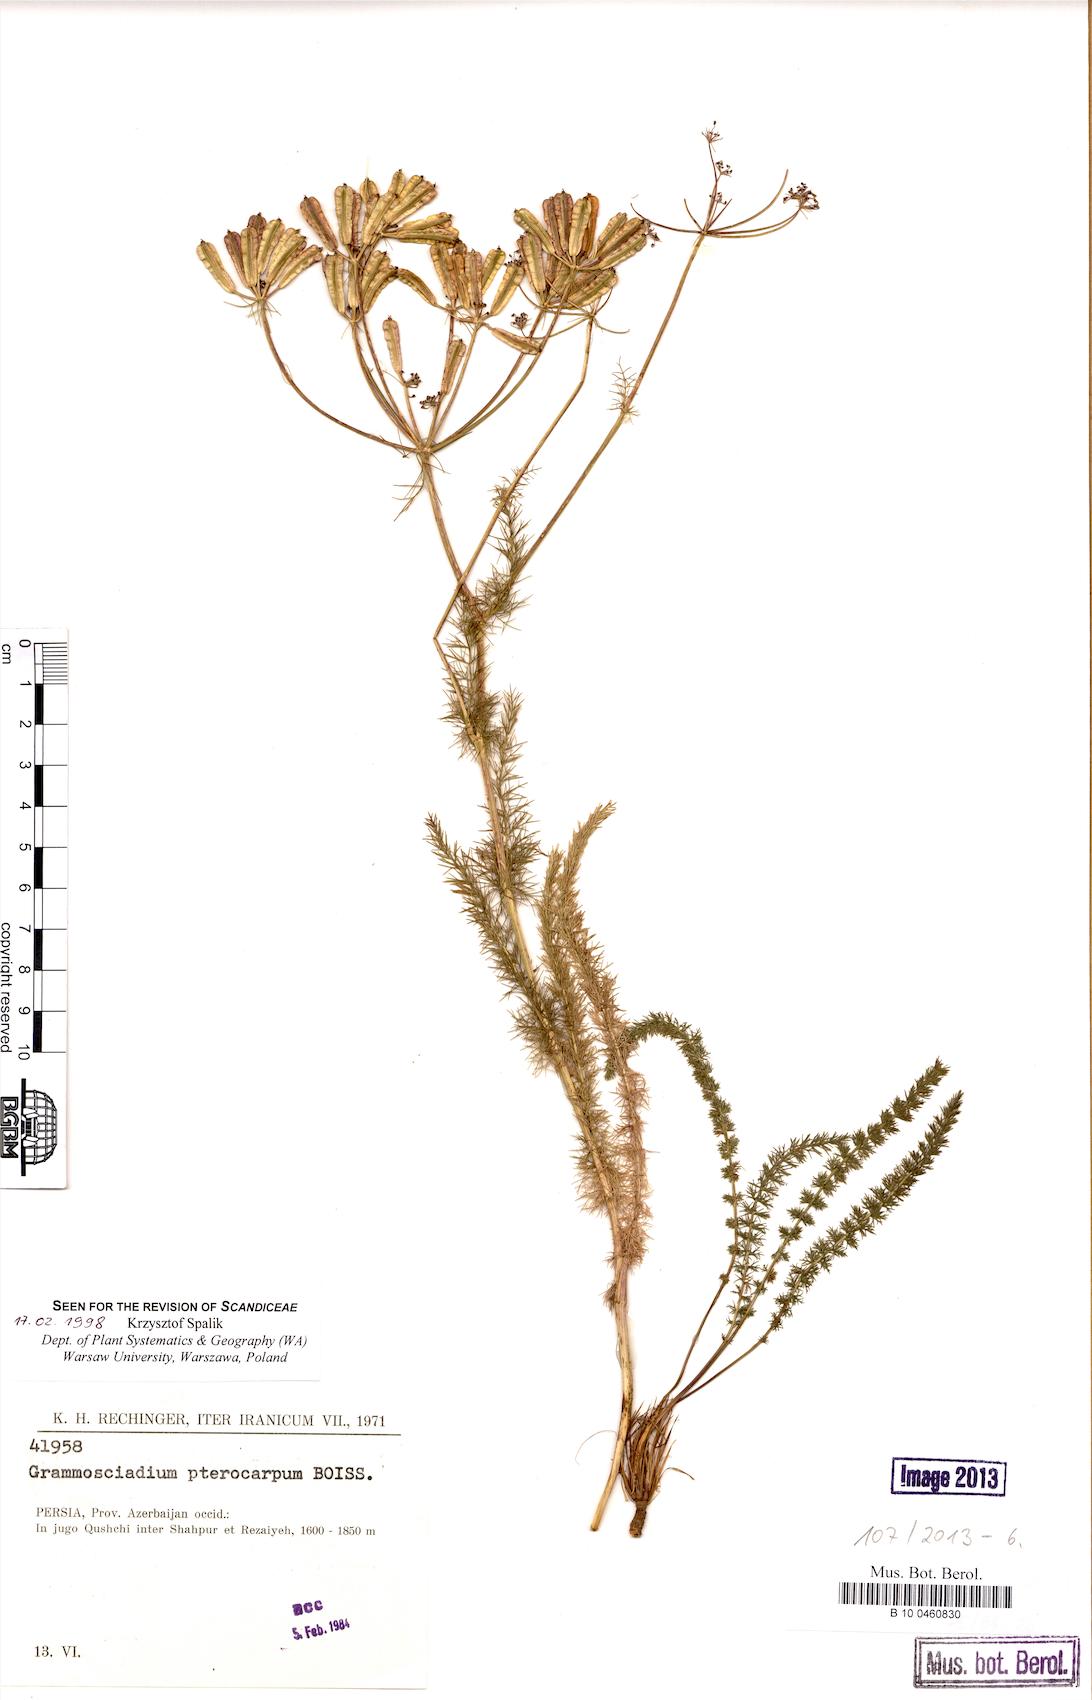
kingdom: Plantae
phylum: Tracheophyta
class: Magnoliopsida
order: Apiales
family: Apiaceae
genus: Caropodium
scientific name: Caropodium pterocarpum
